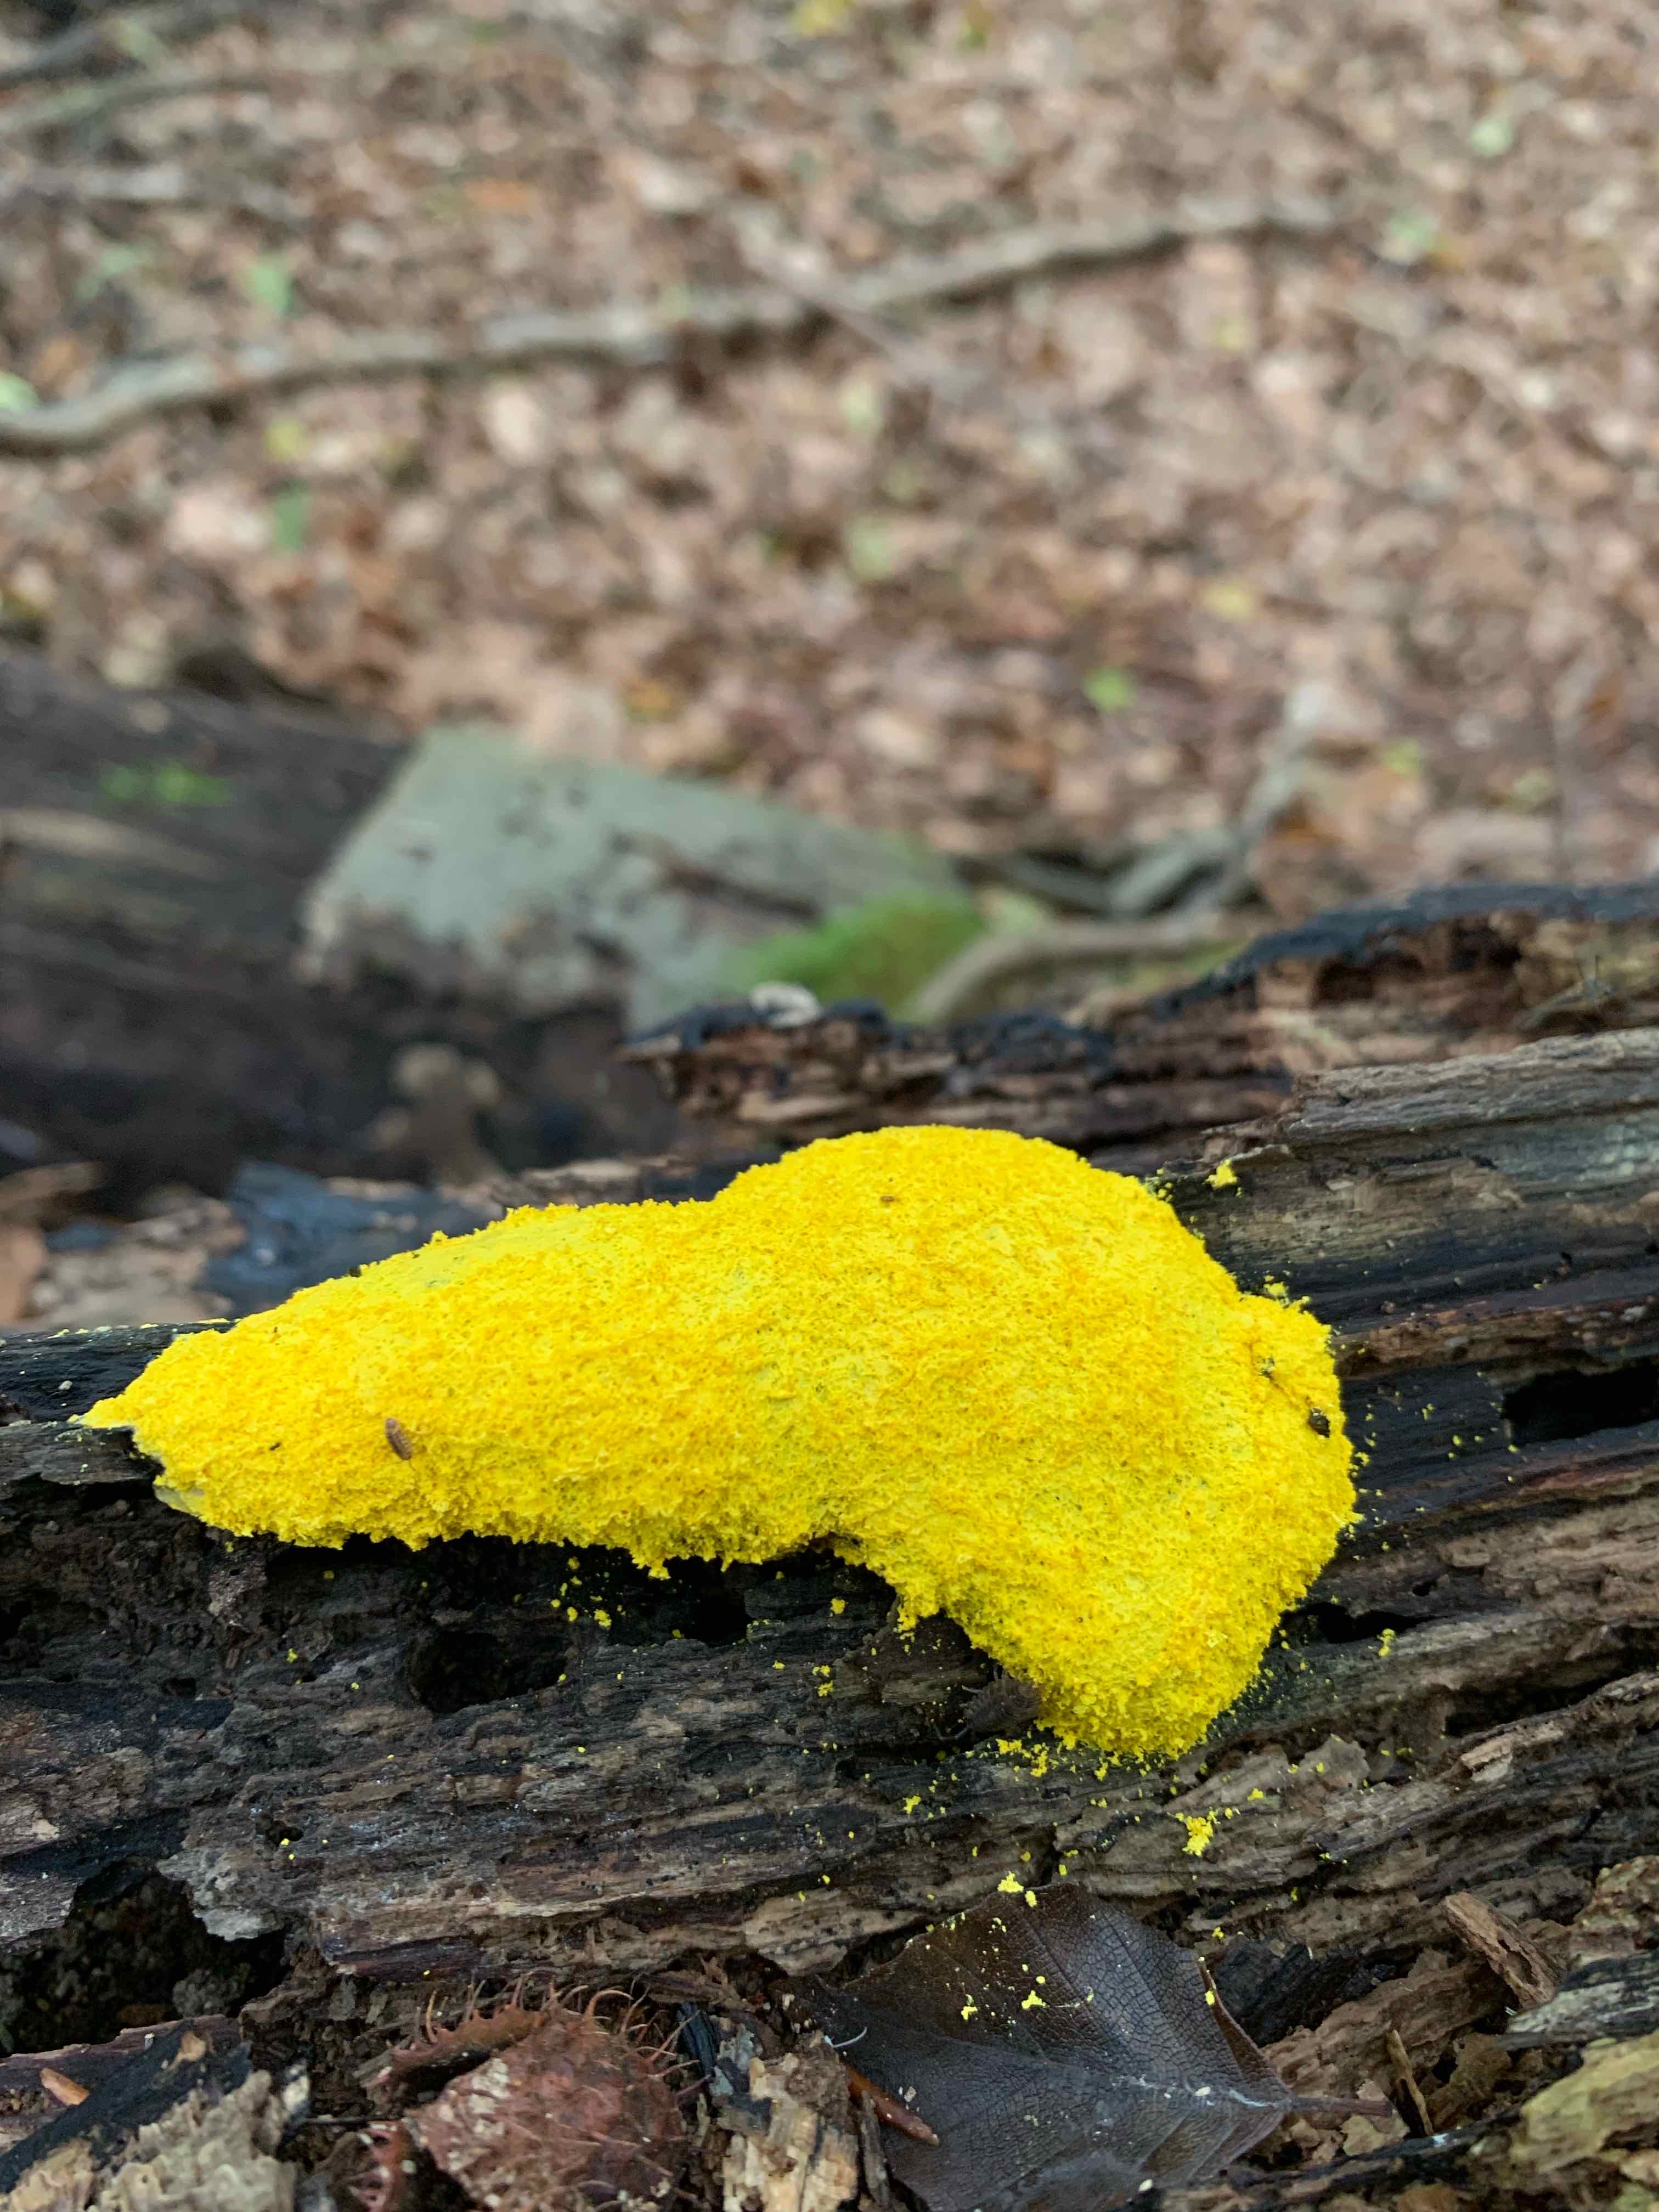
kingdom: Protozoa
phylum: Mycetozoa
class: Myxomycetes
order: Physarales
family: Physaraceae
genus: Fuligo
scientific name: Fuligo septica
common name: gul troldsmør
